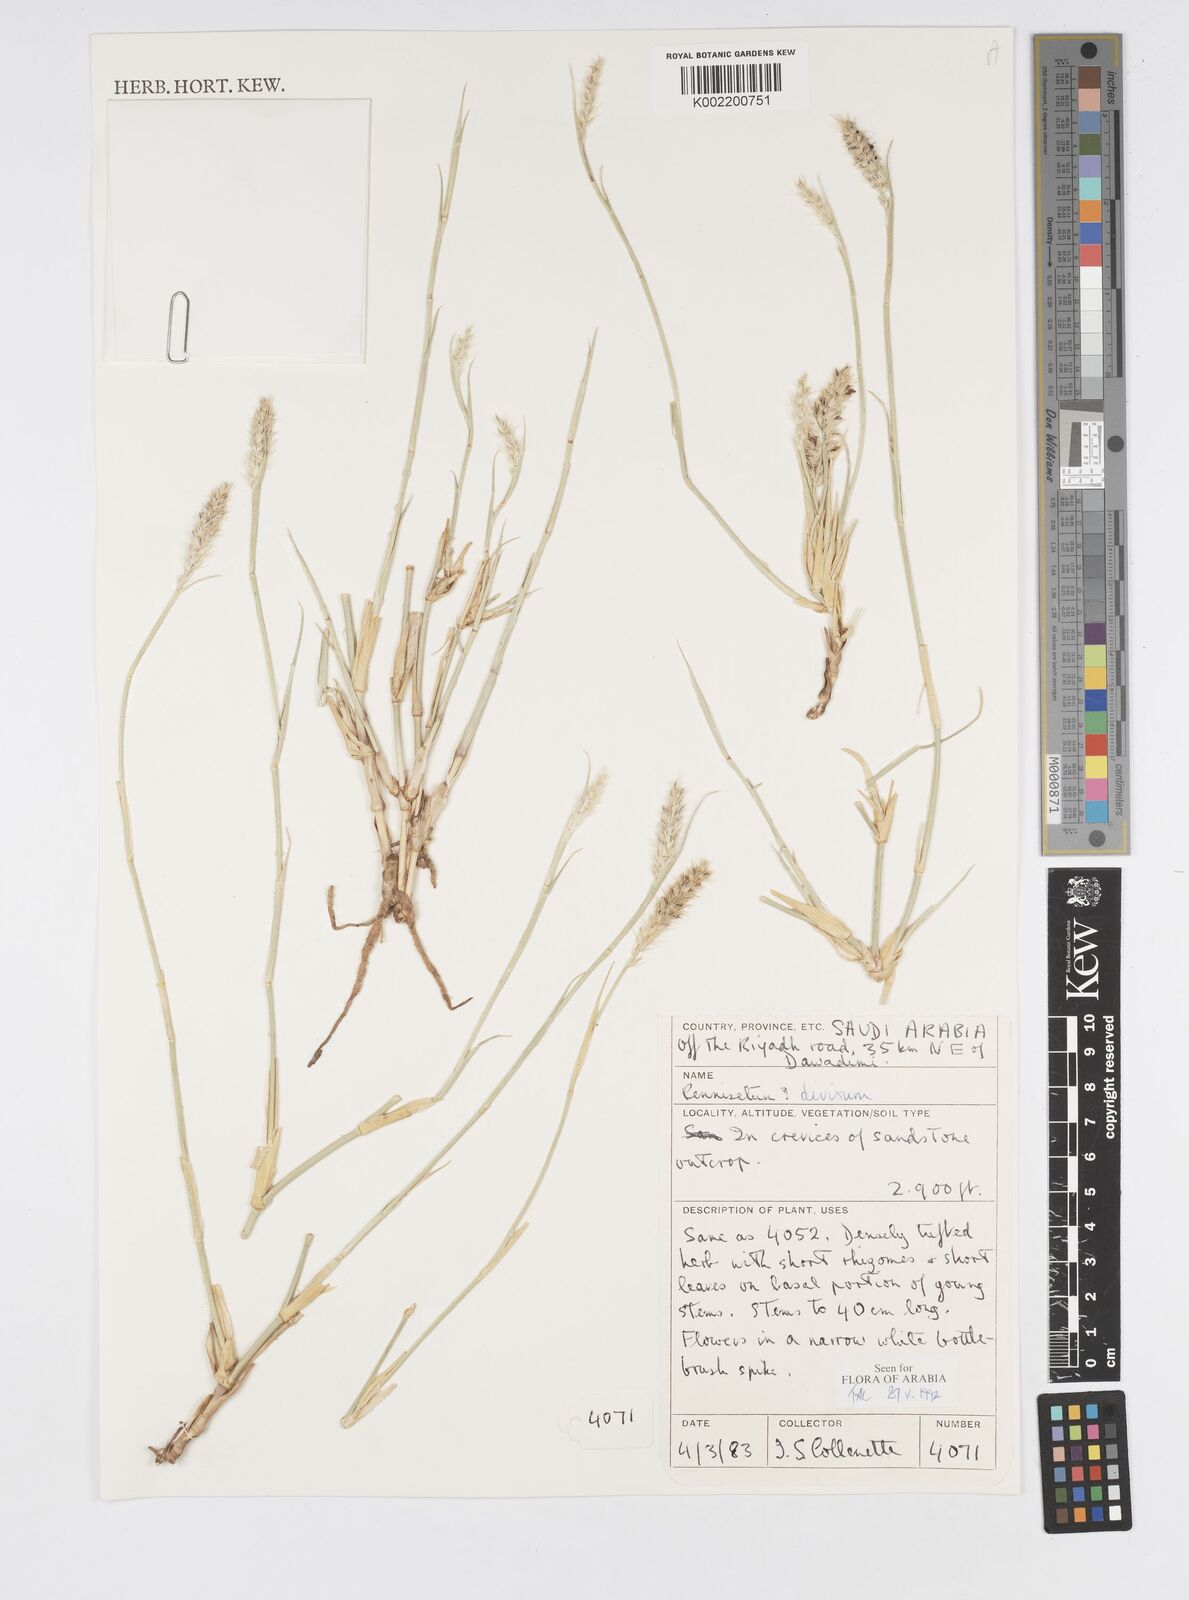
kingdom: Plantae
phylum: Tracheophyta
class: Liliopsida
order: Poales
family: Poaceae
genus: Cenchrus
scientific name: Cenchrus divisus
